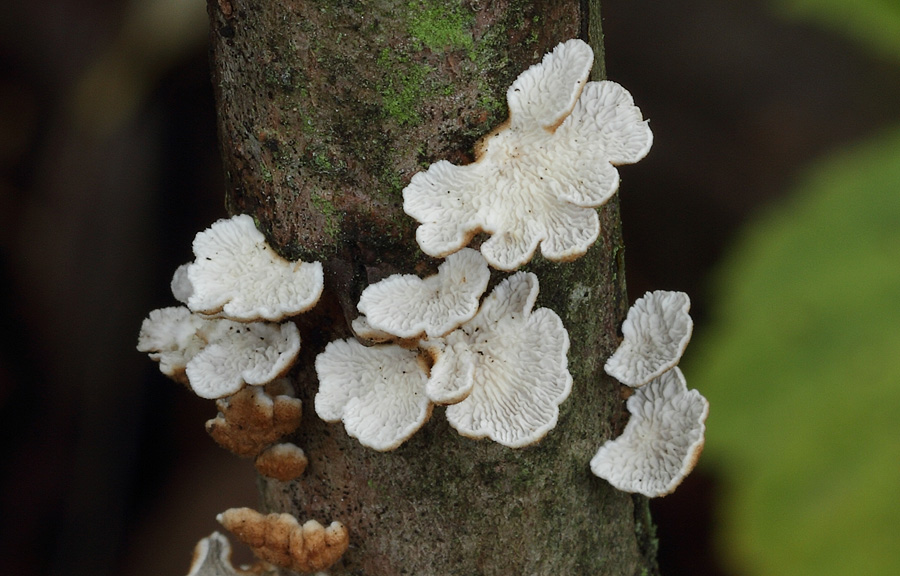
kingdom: Fungi
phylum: Basidiomycota
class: Agaricomycetes
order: Amylocorticiales
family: Amylocorticiaceae
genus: Plicaturopsis
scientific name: Plicaturopsis crispa
